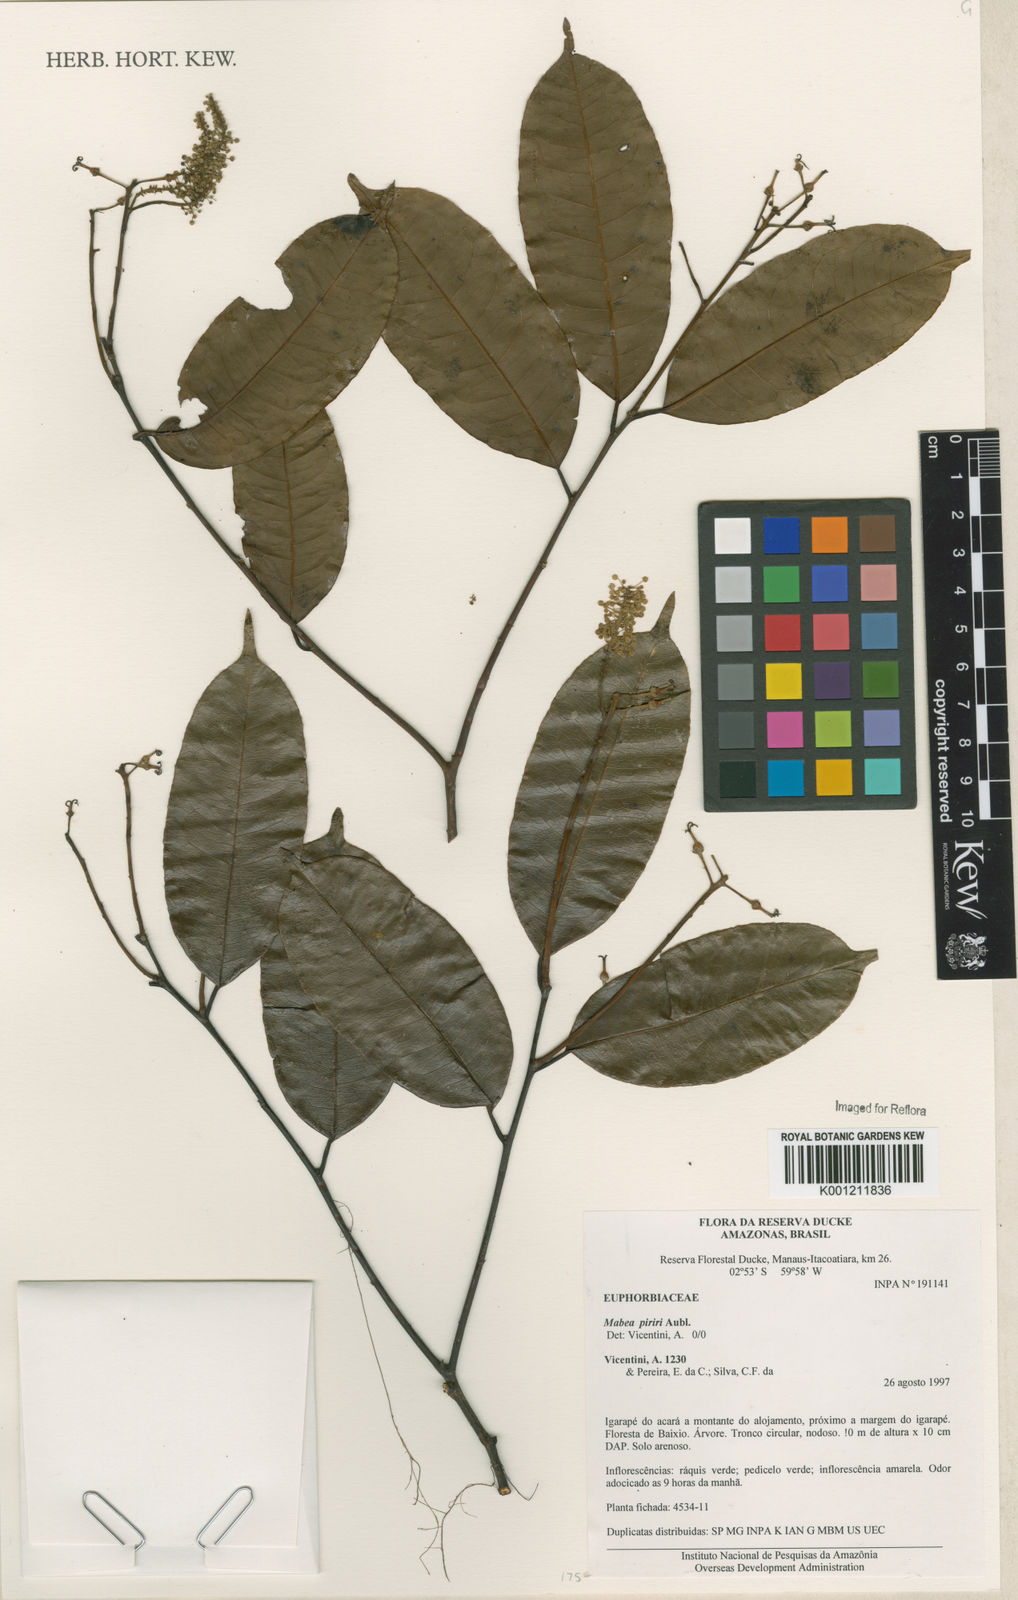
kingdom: Plantae
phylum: Tracheophyta
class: Magnoliopsida
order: Malpighiales
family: Euphorbiaceae
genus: Mabea
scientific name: Mabea piriri
